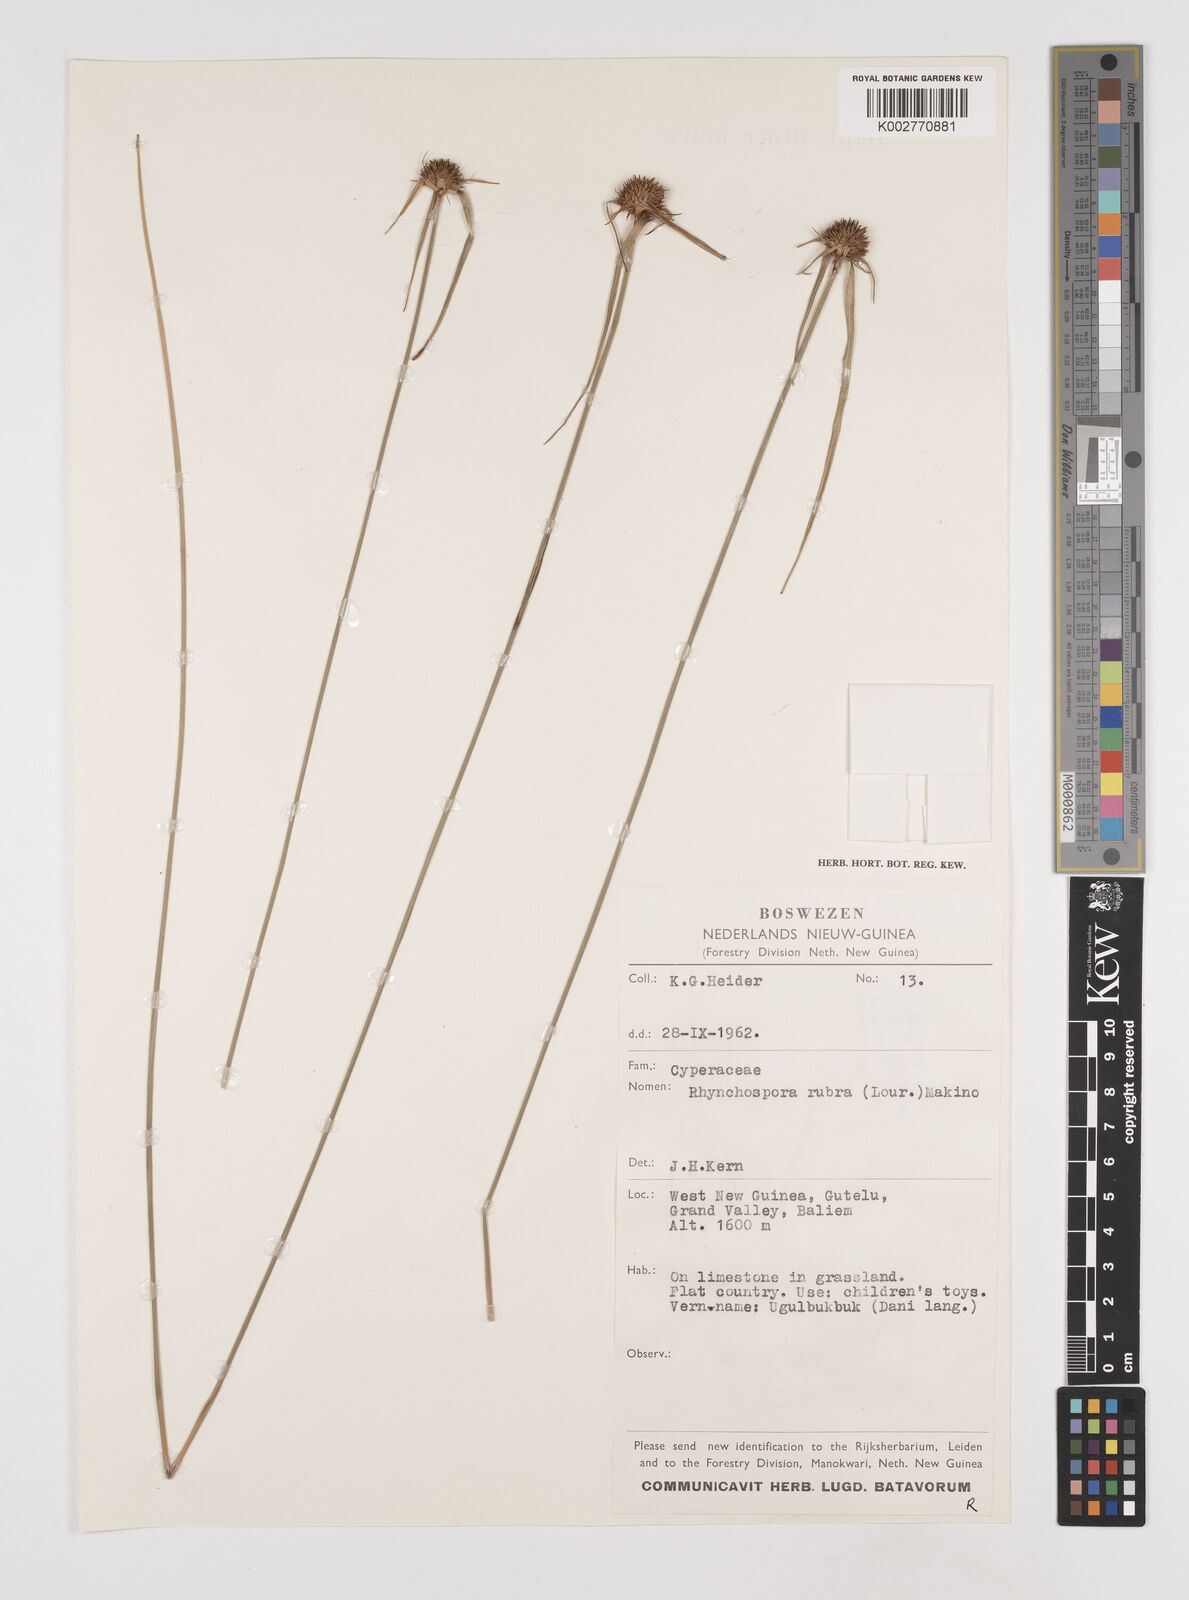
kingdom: Plantae
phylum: Tracheophyta
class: Liliopsida
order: Poales
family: Cyperaceae
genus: Rhynchospora
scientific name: Rhynchospora rubra
